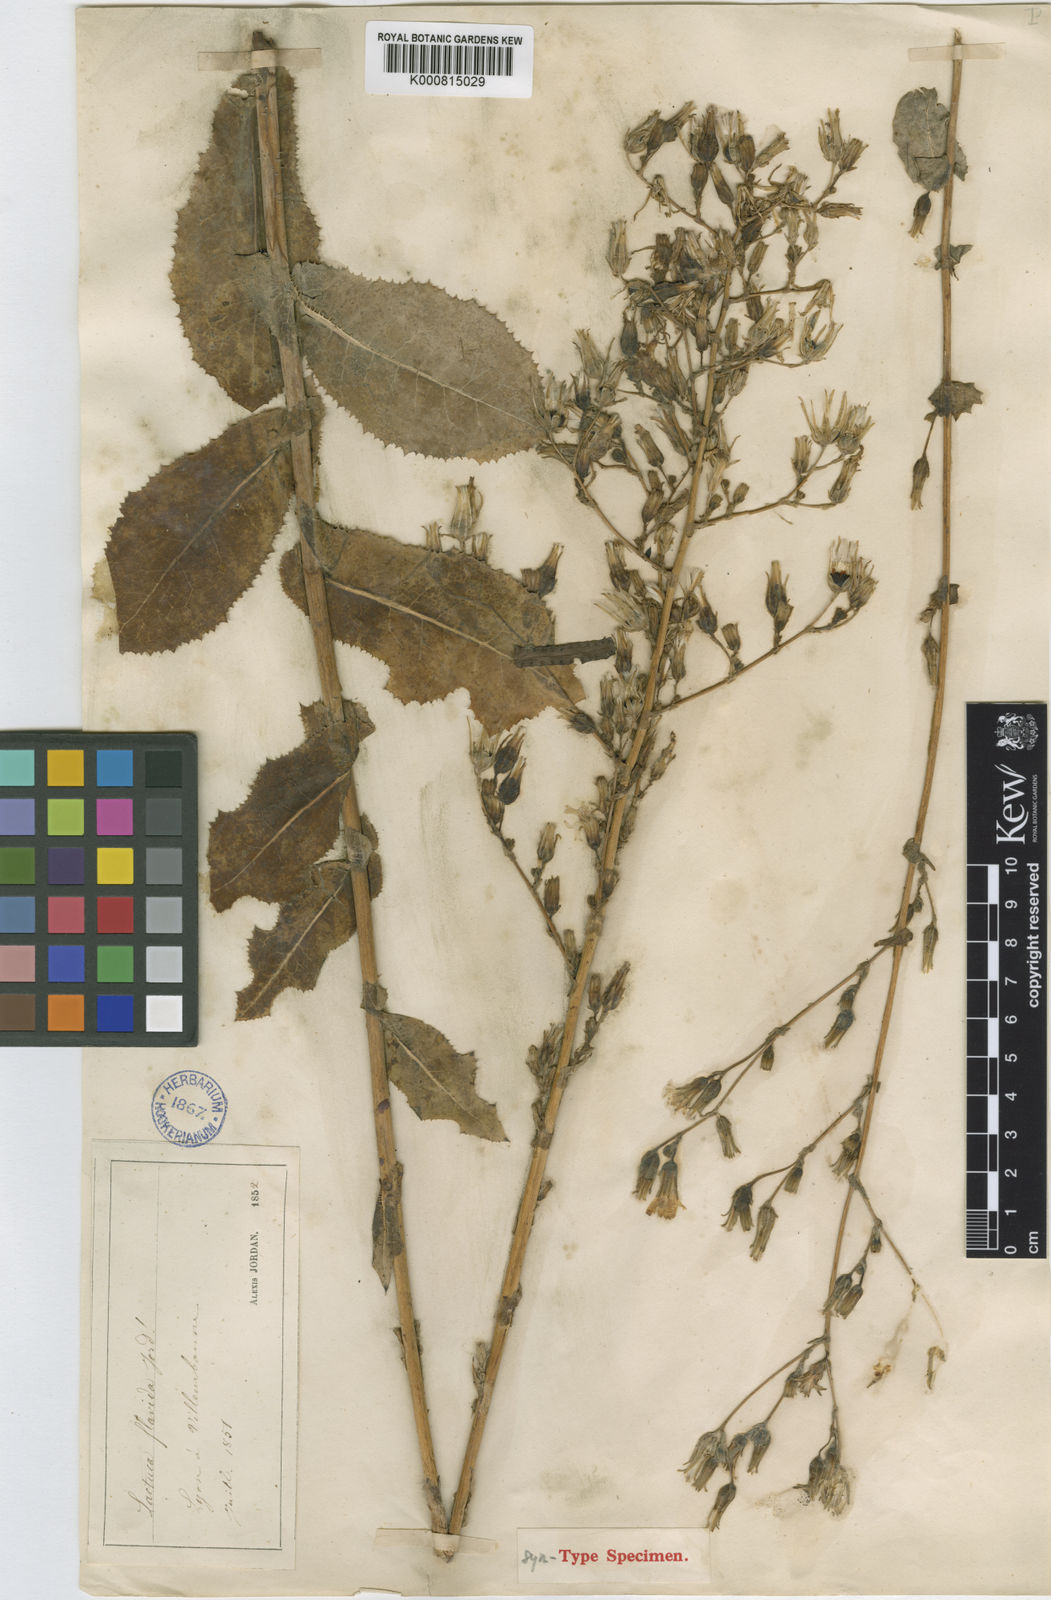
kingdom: Plantae
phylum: Tracheophyta
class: Magnoliopsida
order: Asterales
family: Asteraceae
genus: Lactuca
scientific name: Lactuca virosa
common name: Great lettuce
